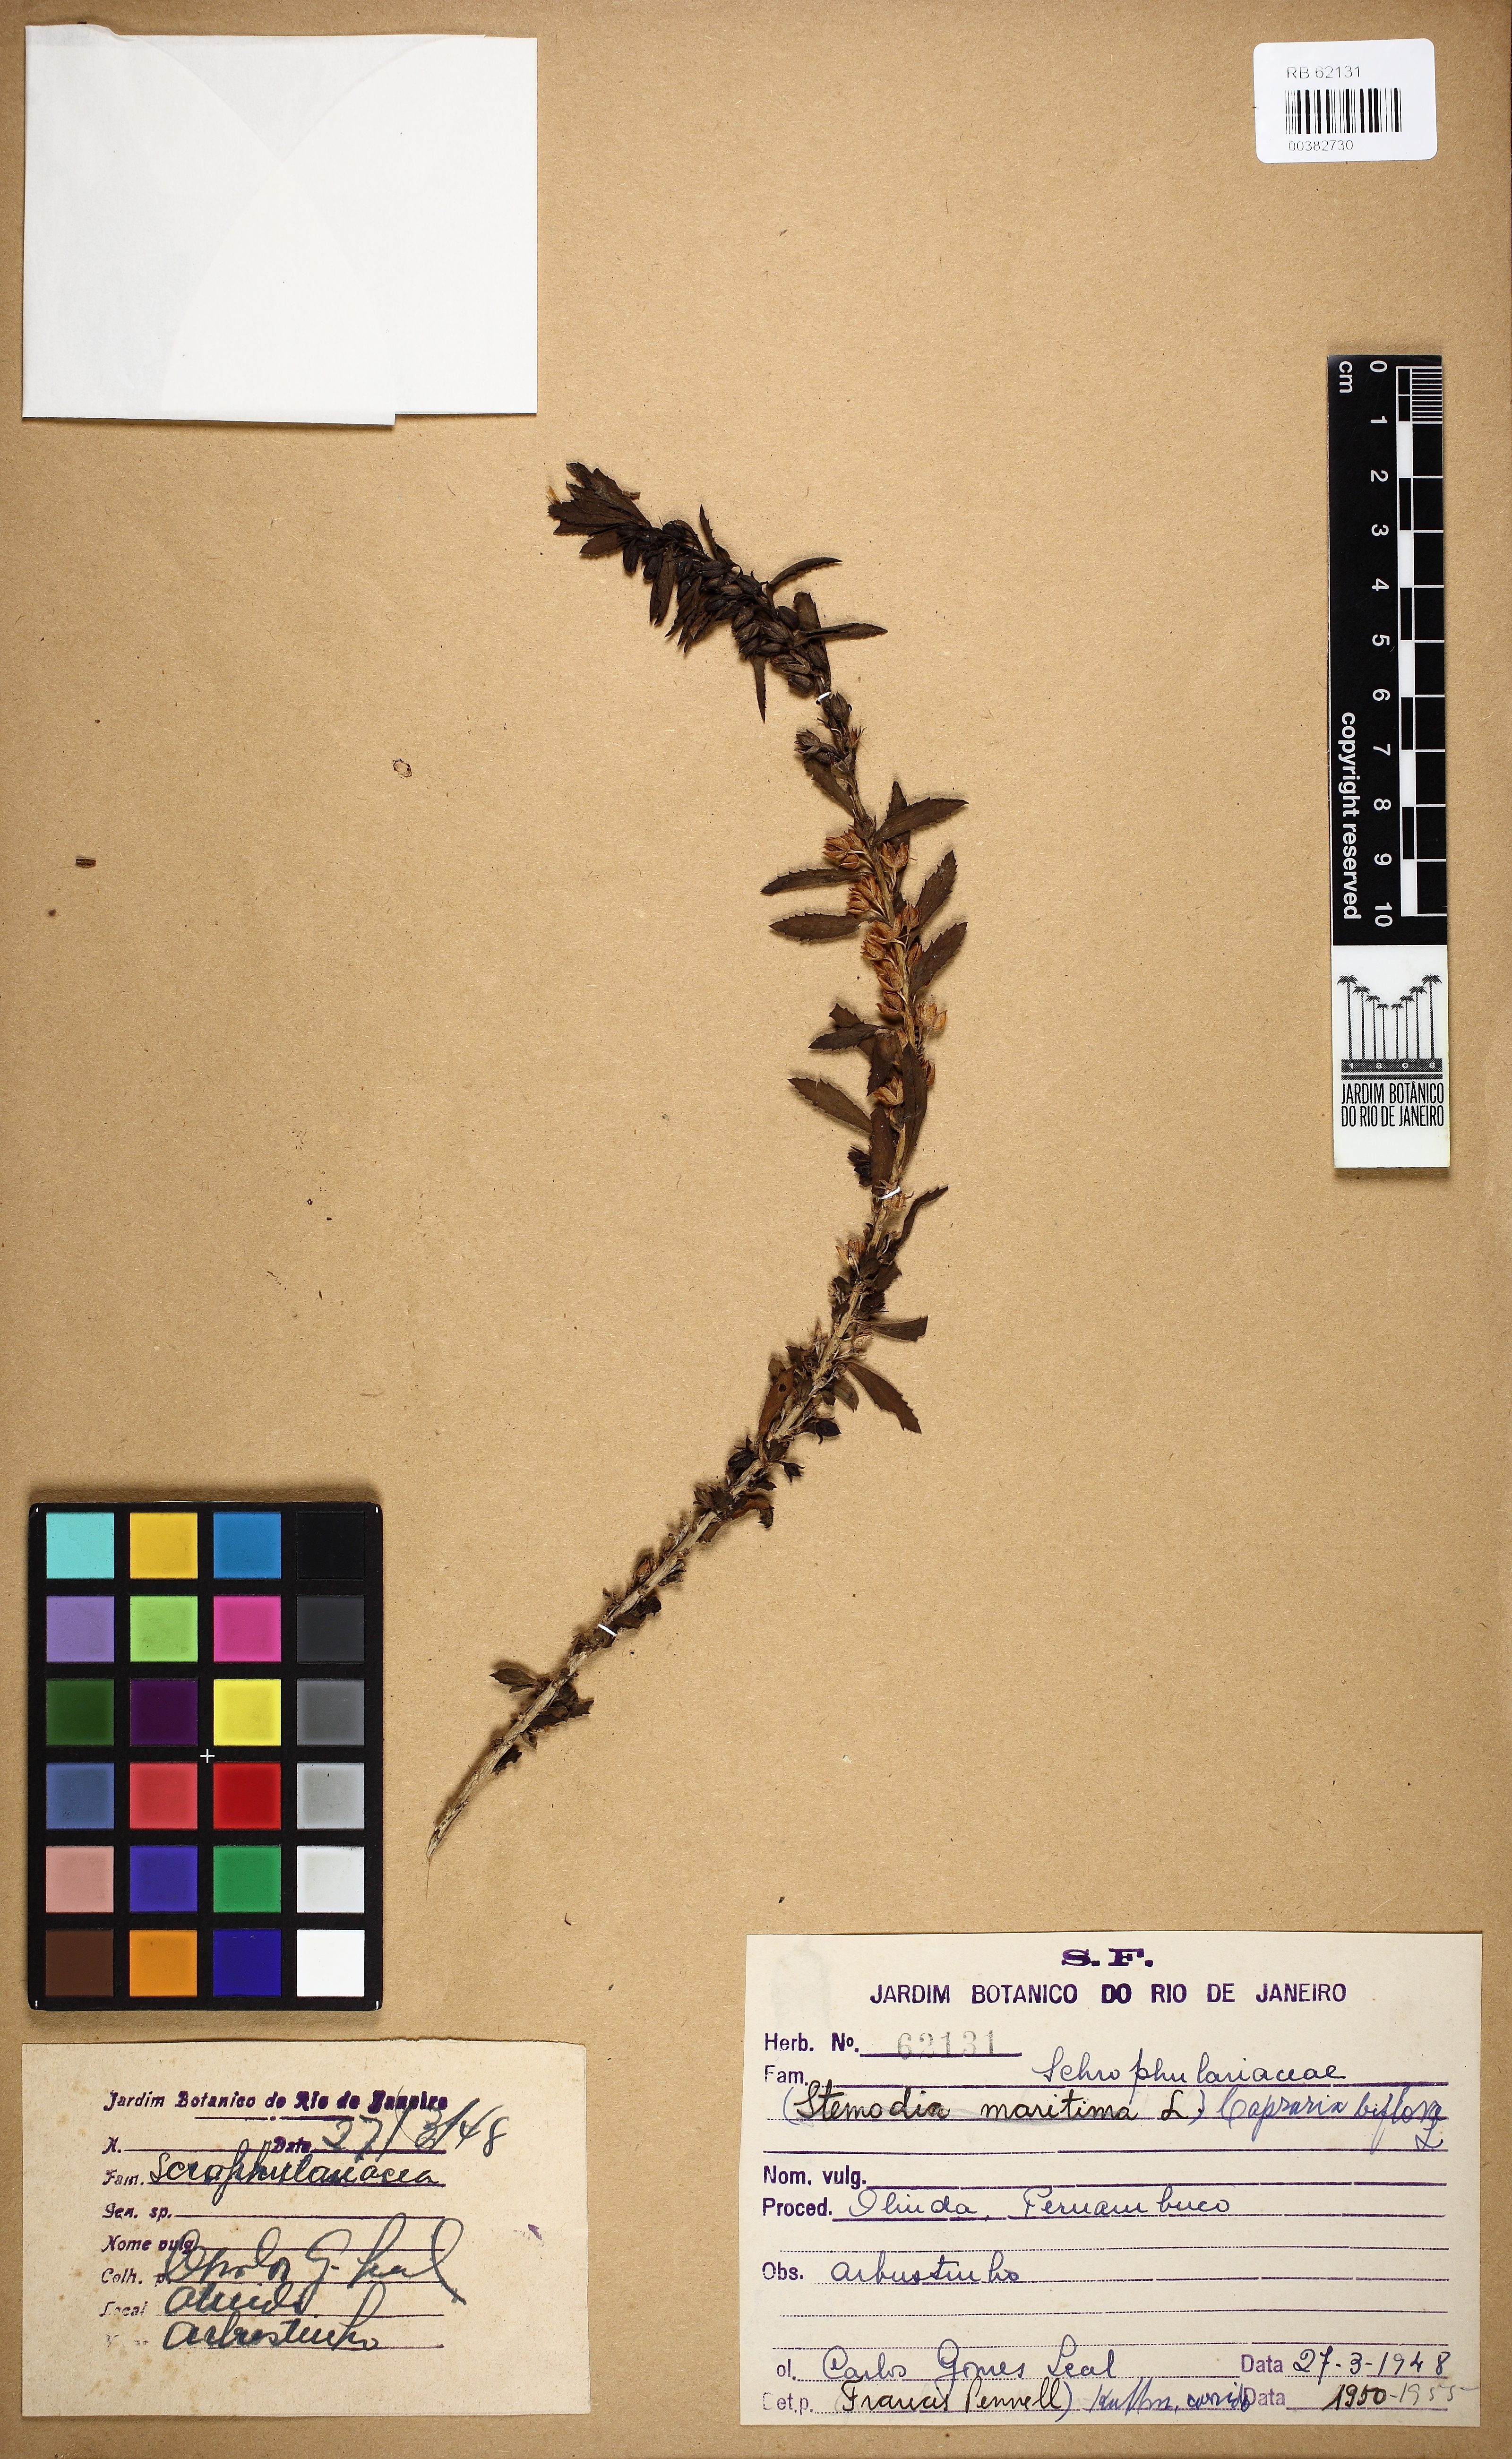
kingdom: Plantae
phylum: Tracheophyta
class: Magnoliopsida
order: Lamiales
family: Scrophulariaceae
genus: Capraria
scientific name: Capraria biflora
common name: Goatweed
